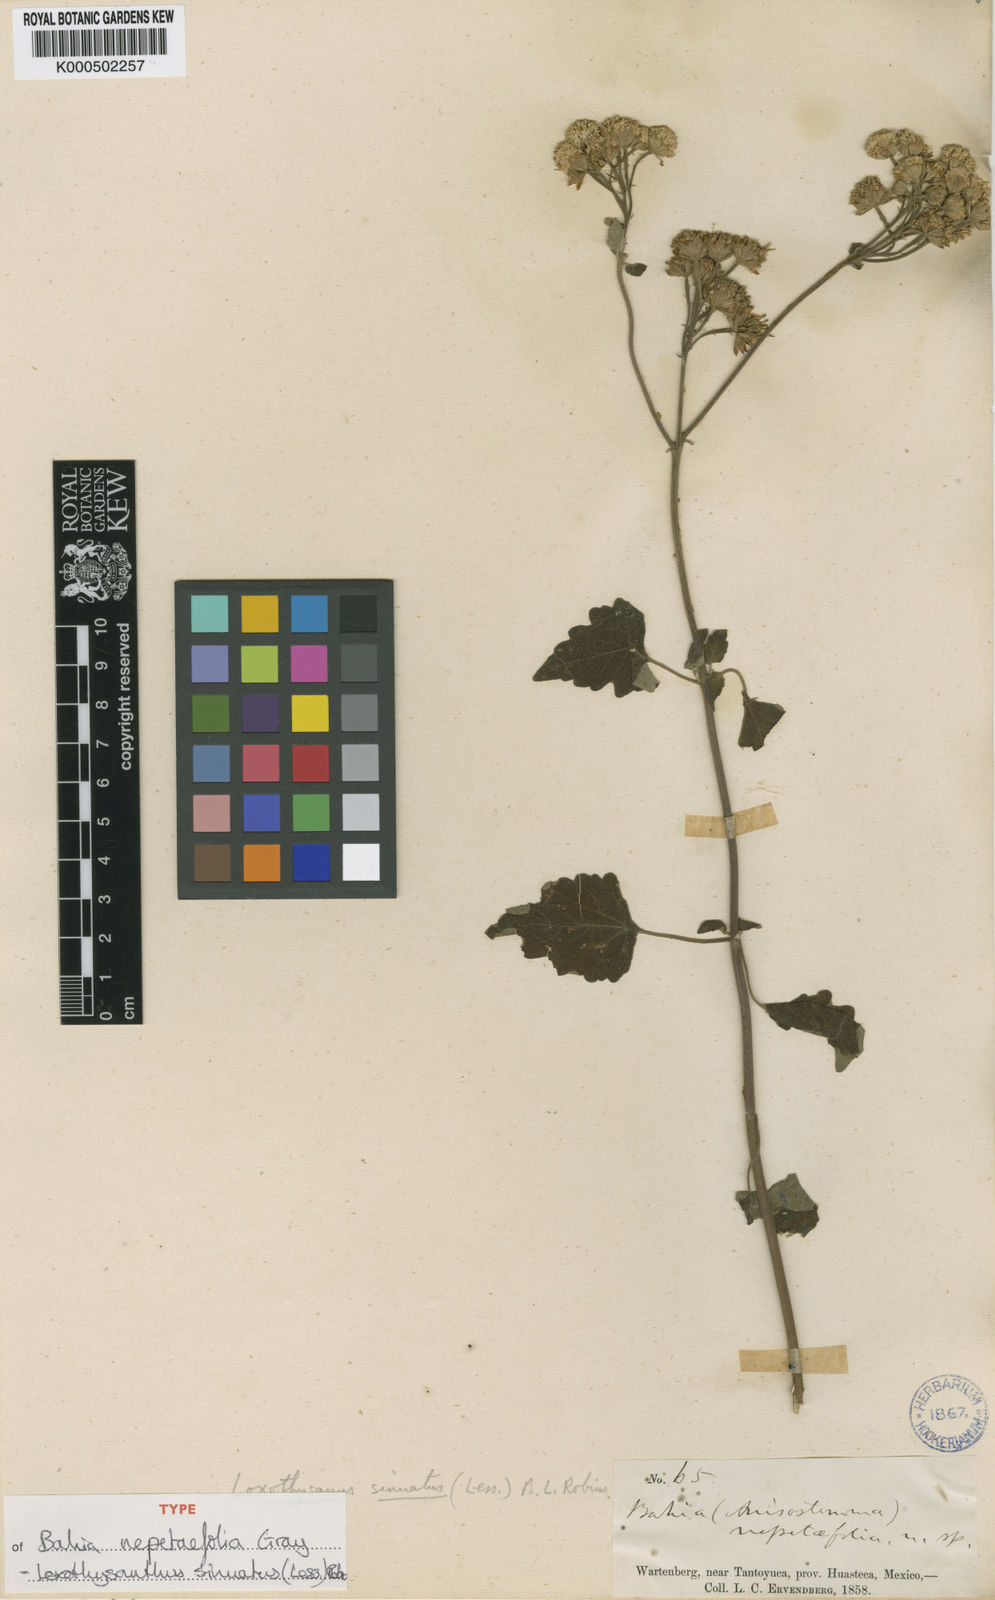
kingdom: Plantae
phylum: Tracheophyta
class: Magnoliopsida
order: Asterales
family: Asteraceae
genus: Loxothysanus
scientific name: Loxothysanus sinuatus
